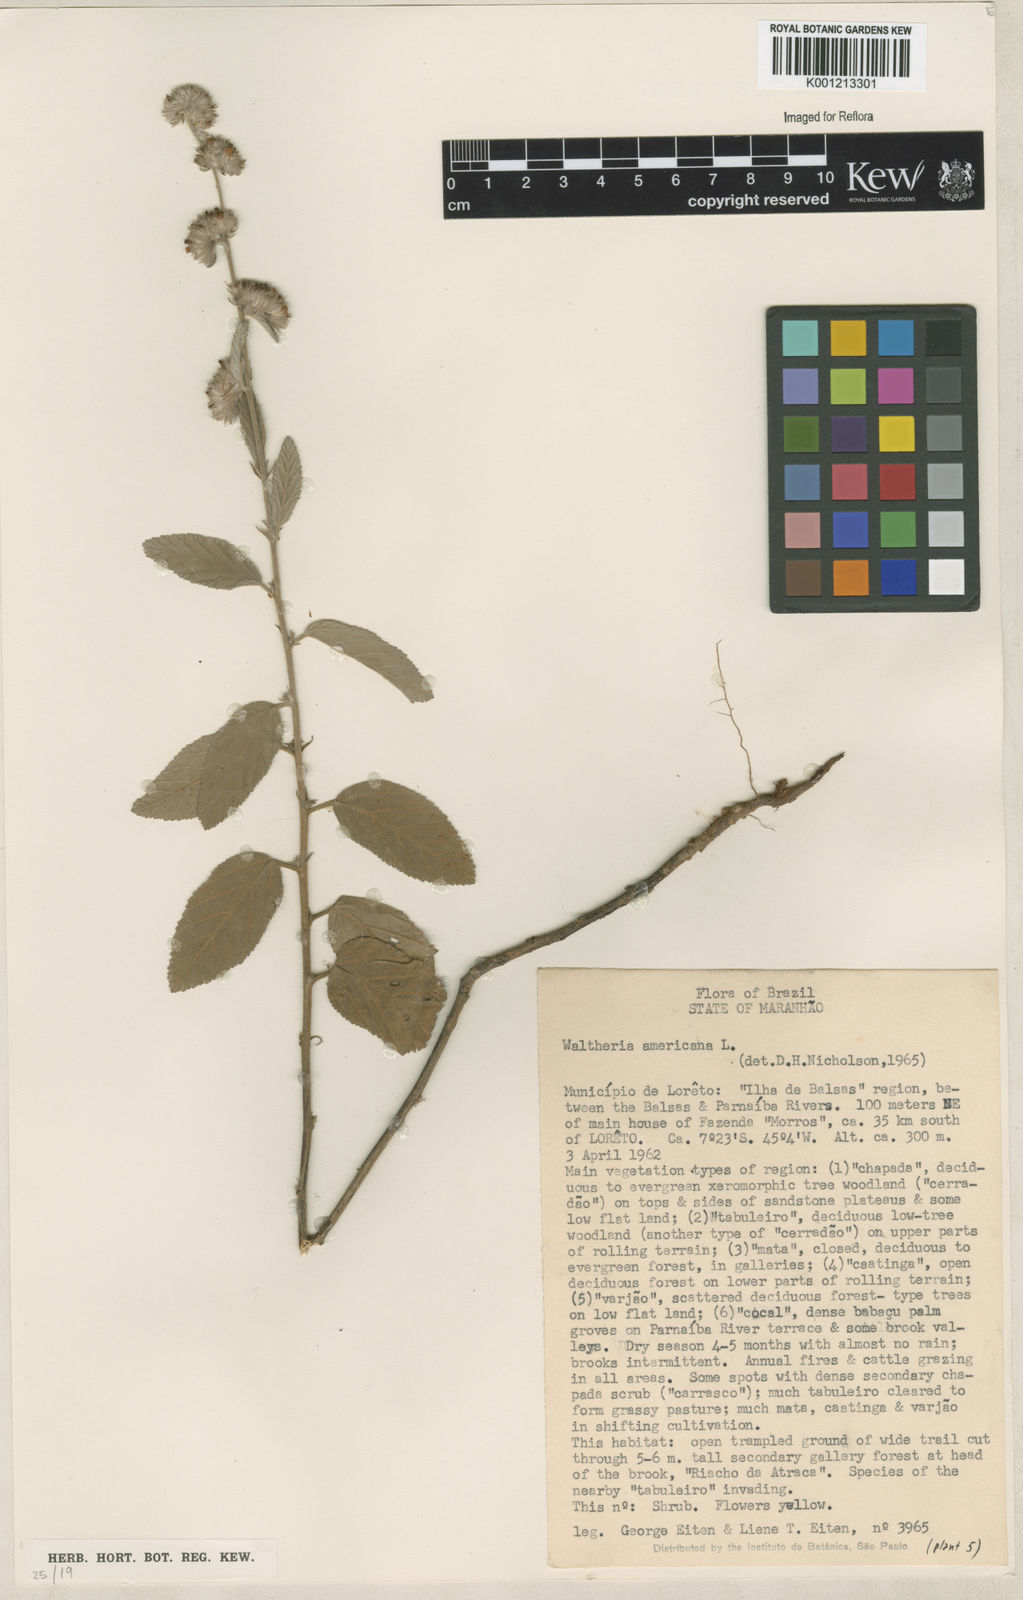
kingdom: Plantae
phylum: Tracheophyta
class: Magnoliopsida
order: Malvales
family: Malvaceae
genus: Waltheria
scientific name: Waltheria indica
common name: Leather-coat
